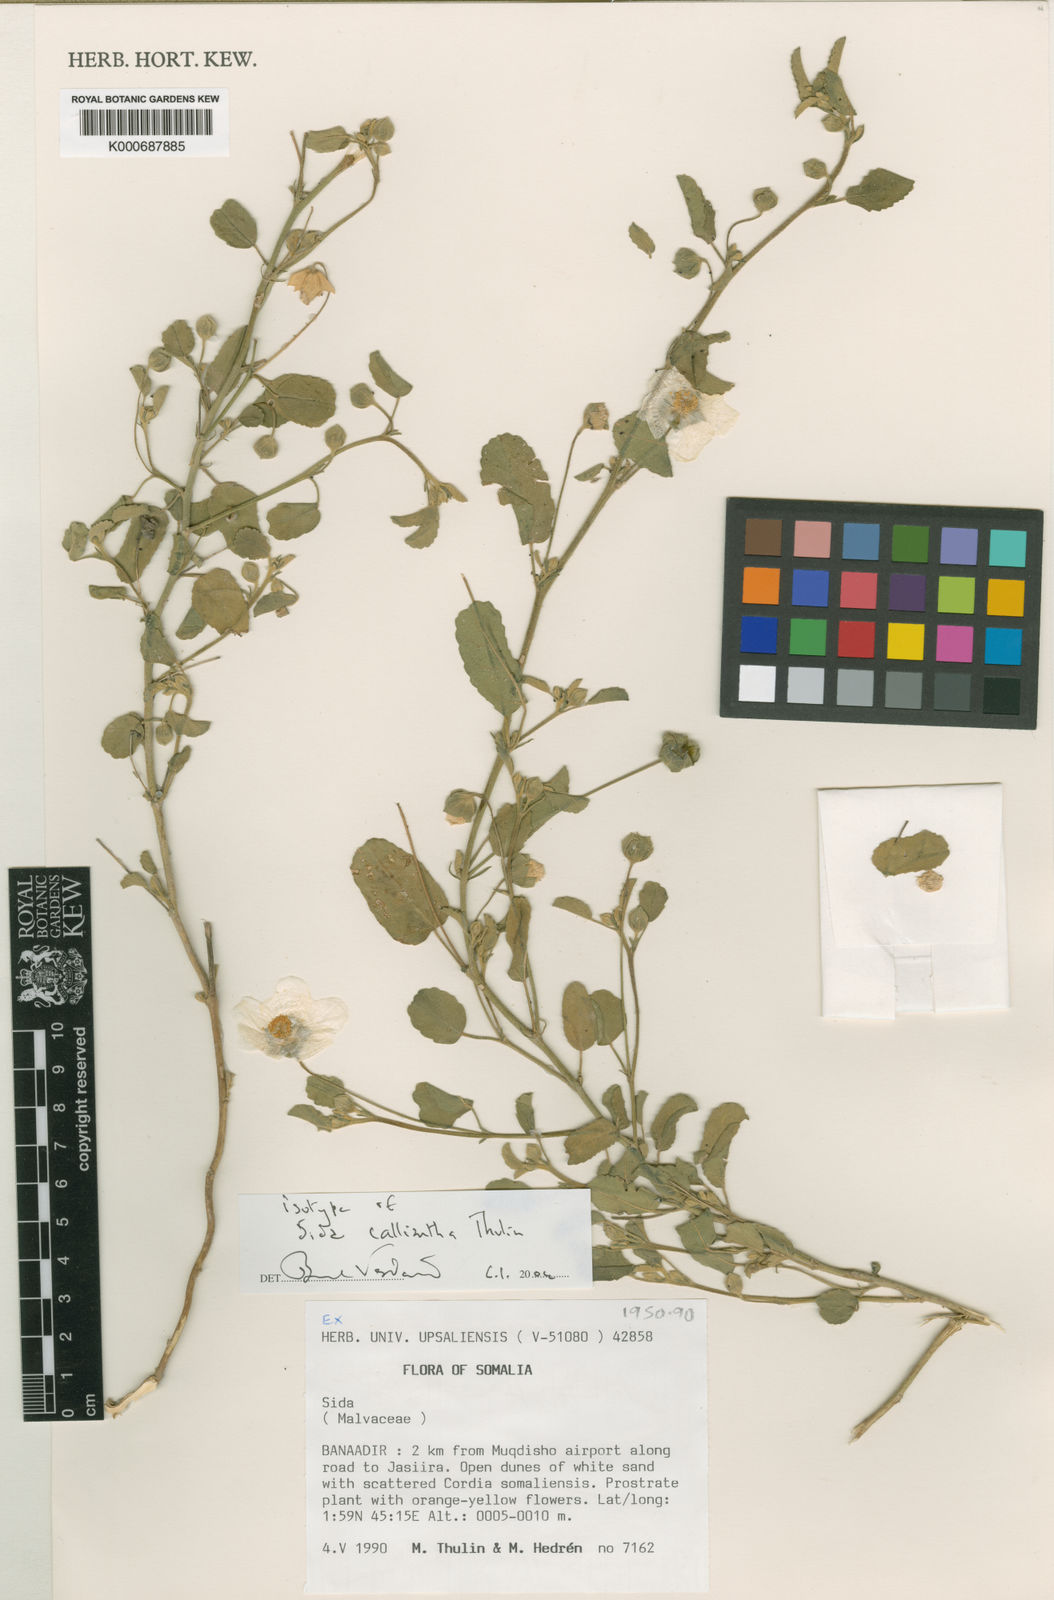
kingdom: Plantae
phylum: Tracheophyta
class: Magnoliopsida
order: Malvales
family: Malvaceae
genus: Sida
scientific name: Sida calliantha
